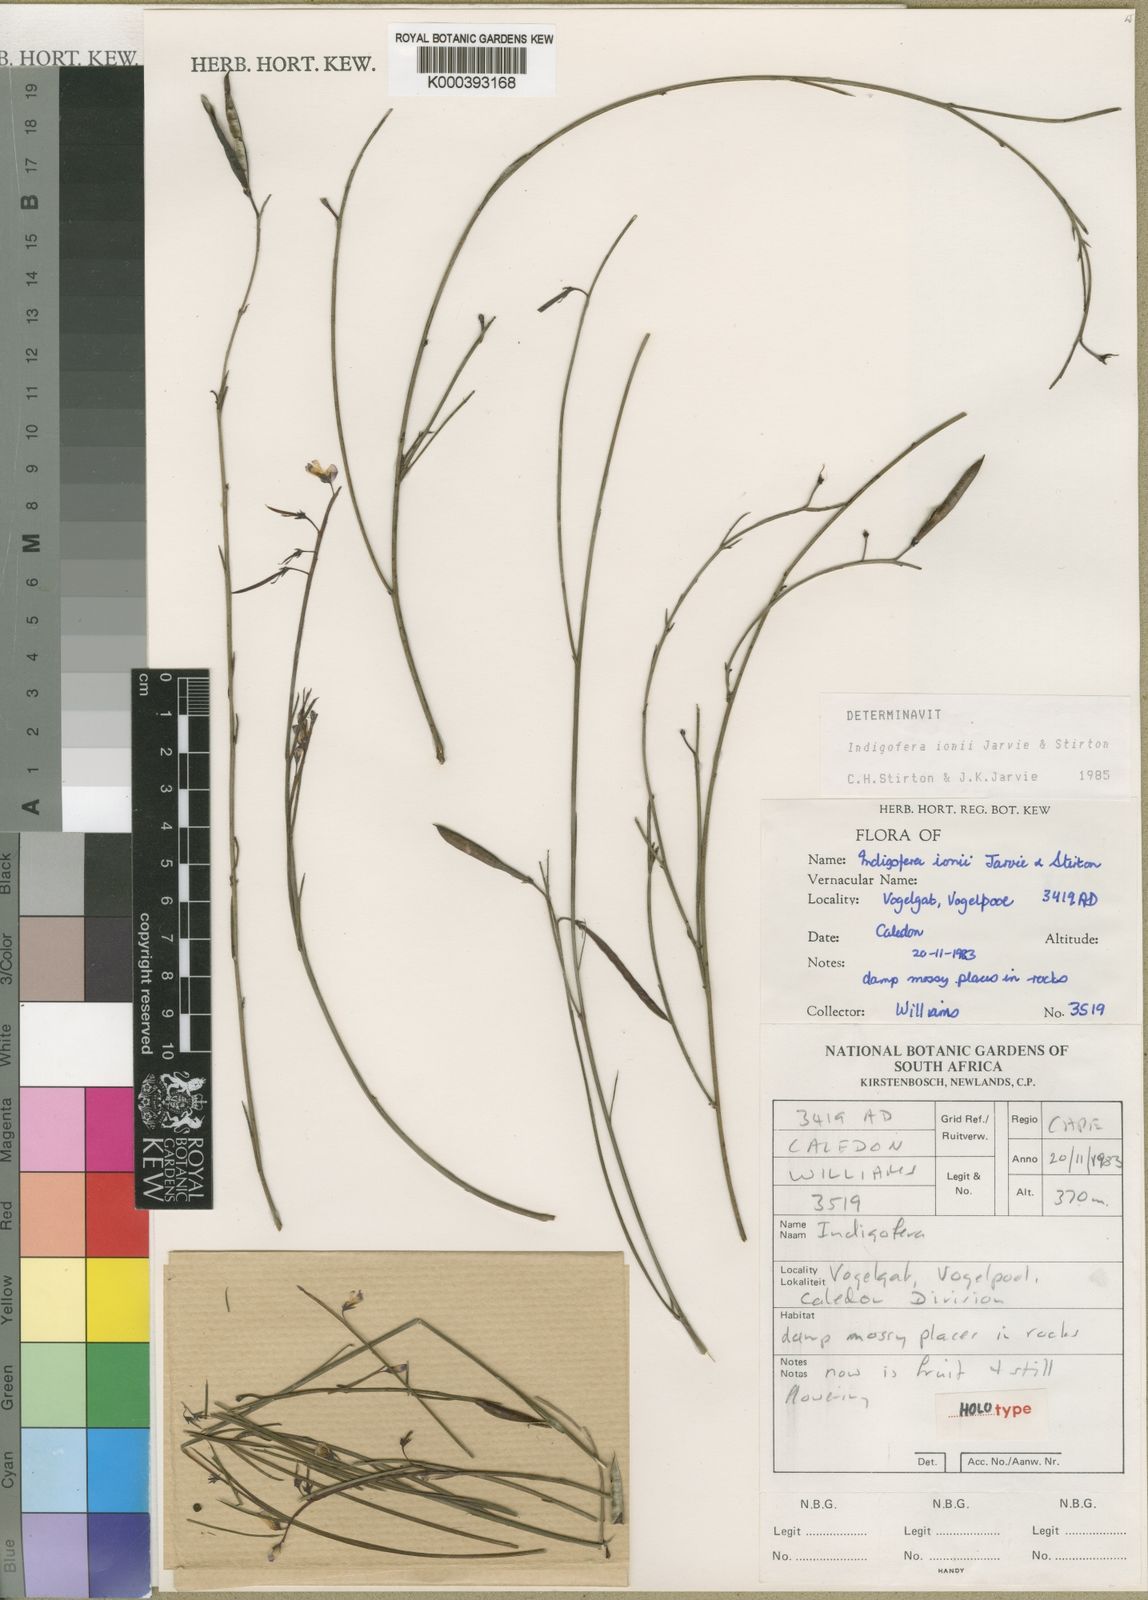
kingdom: Plantae
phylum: Tracheophyta
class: Magnoliopsida
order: Fabales
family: Fabaceae
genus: Indigofera
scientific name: Indigofera ionii
